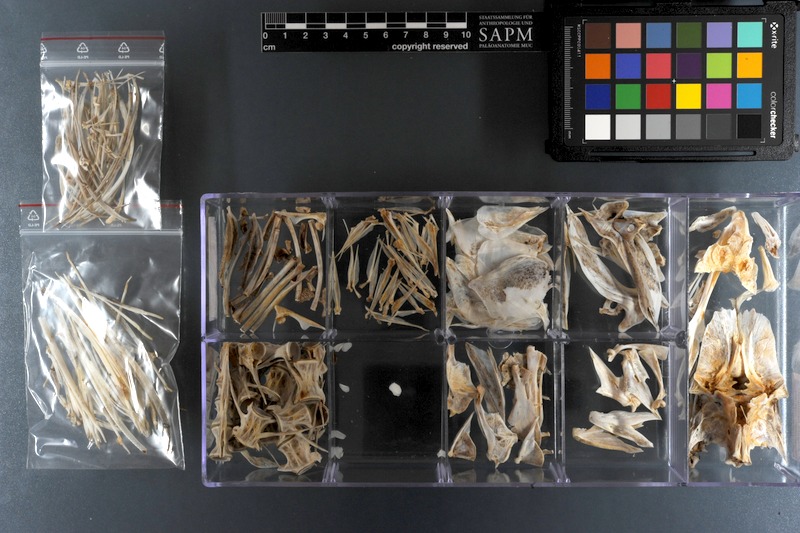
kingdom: Animalia
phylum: Chordata
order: Perciformes
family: Carangidae
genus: Elagatis
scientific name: Elagatis bipinnulata
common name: Rainbow runner
